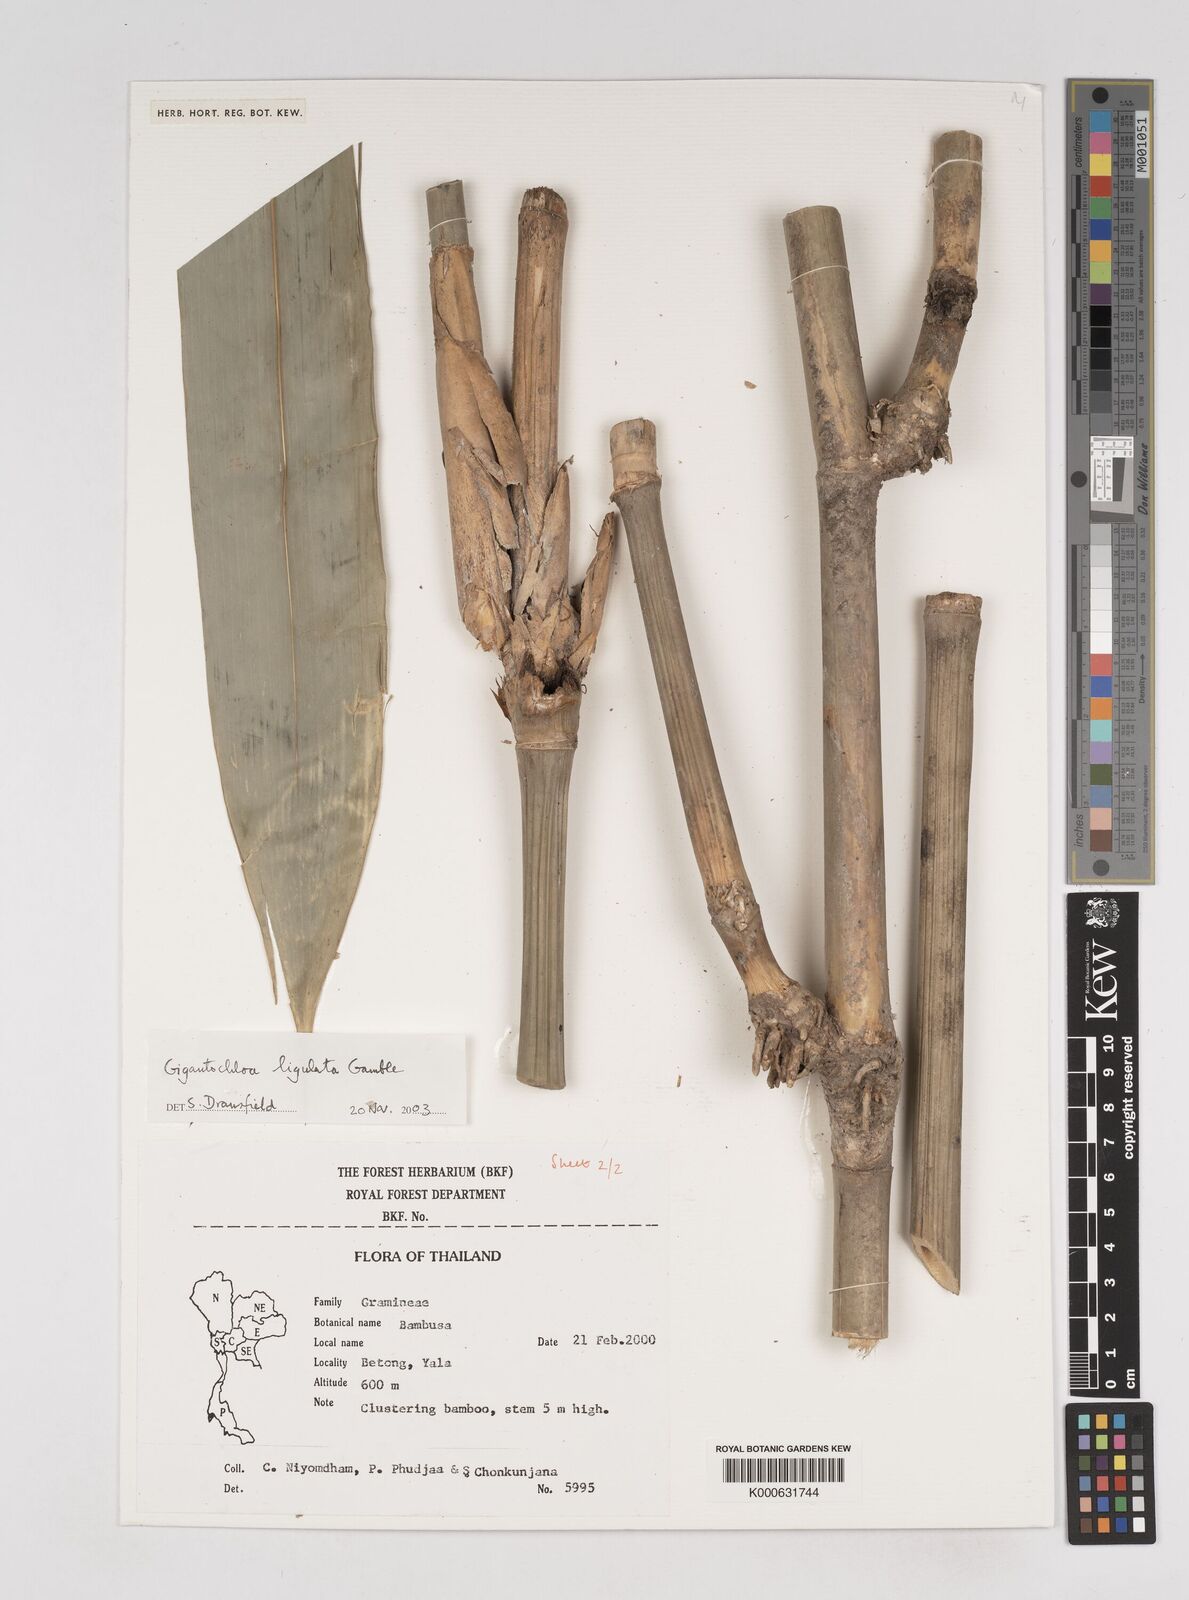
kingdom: Plantae
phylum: Tracheophyta
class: Liliopsida
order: Poales
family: Poaceae
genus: Gigantochloa
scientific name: Gigantochloa ligulata
